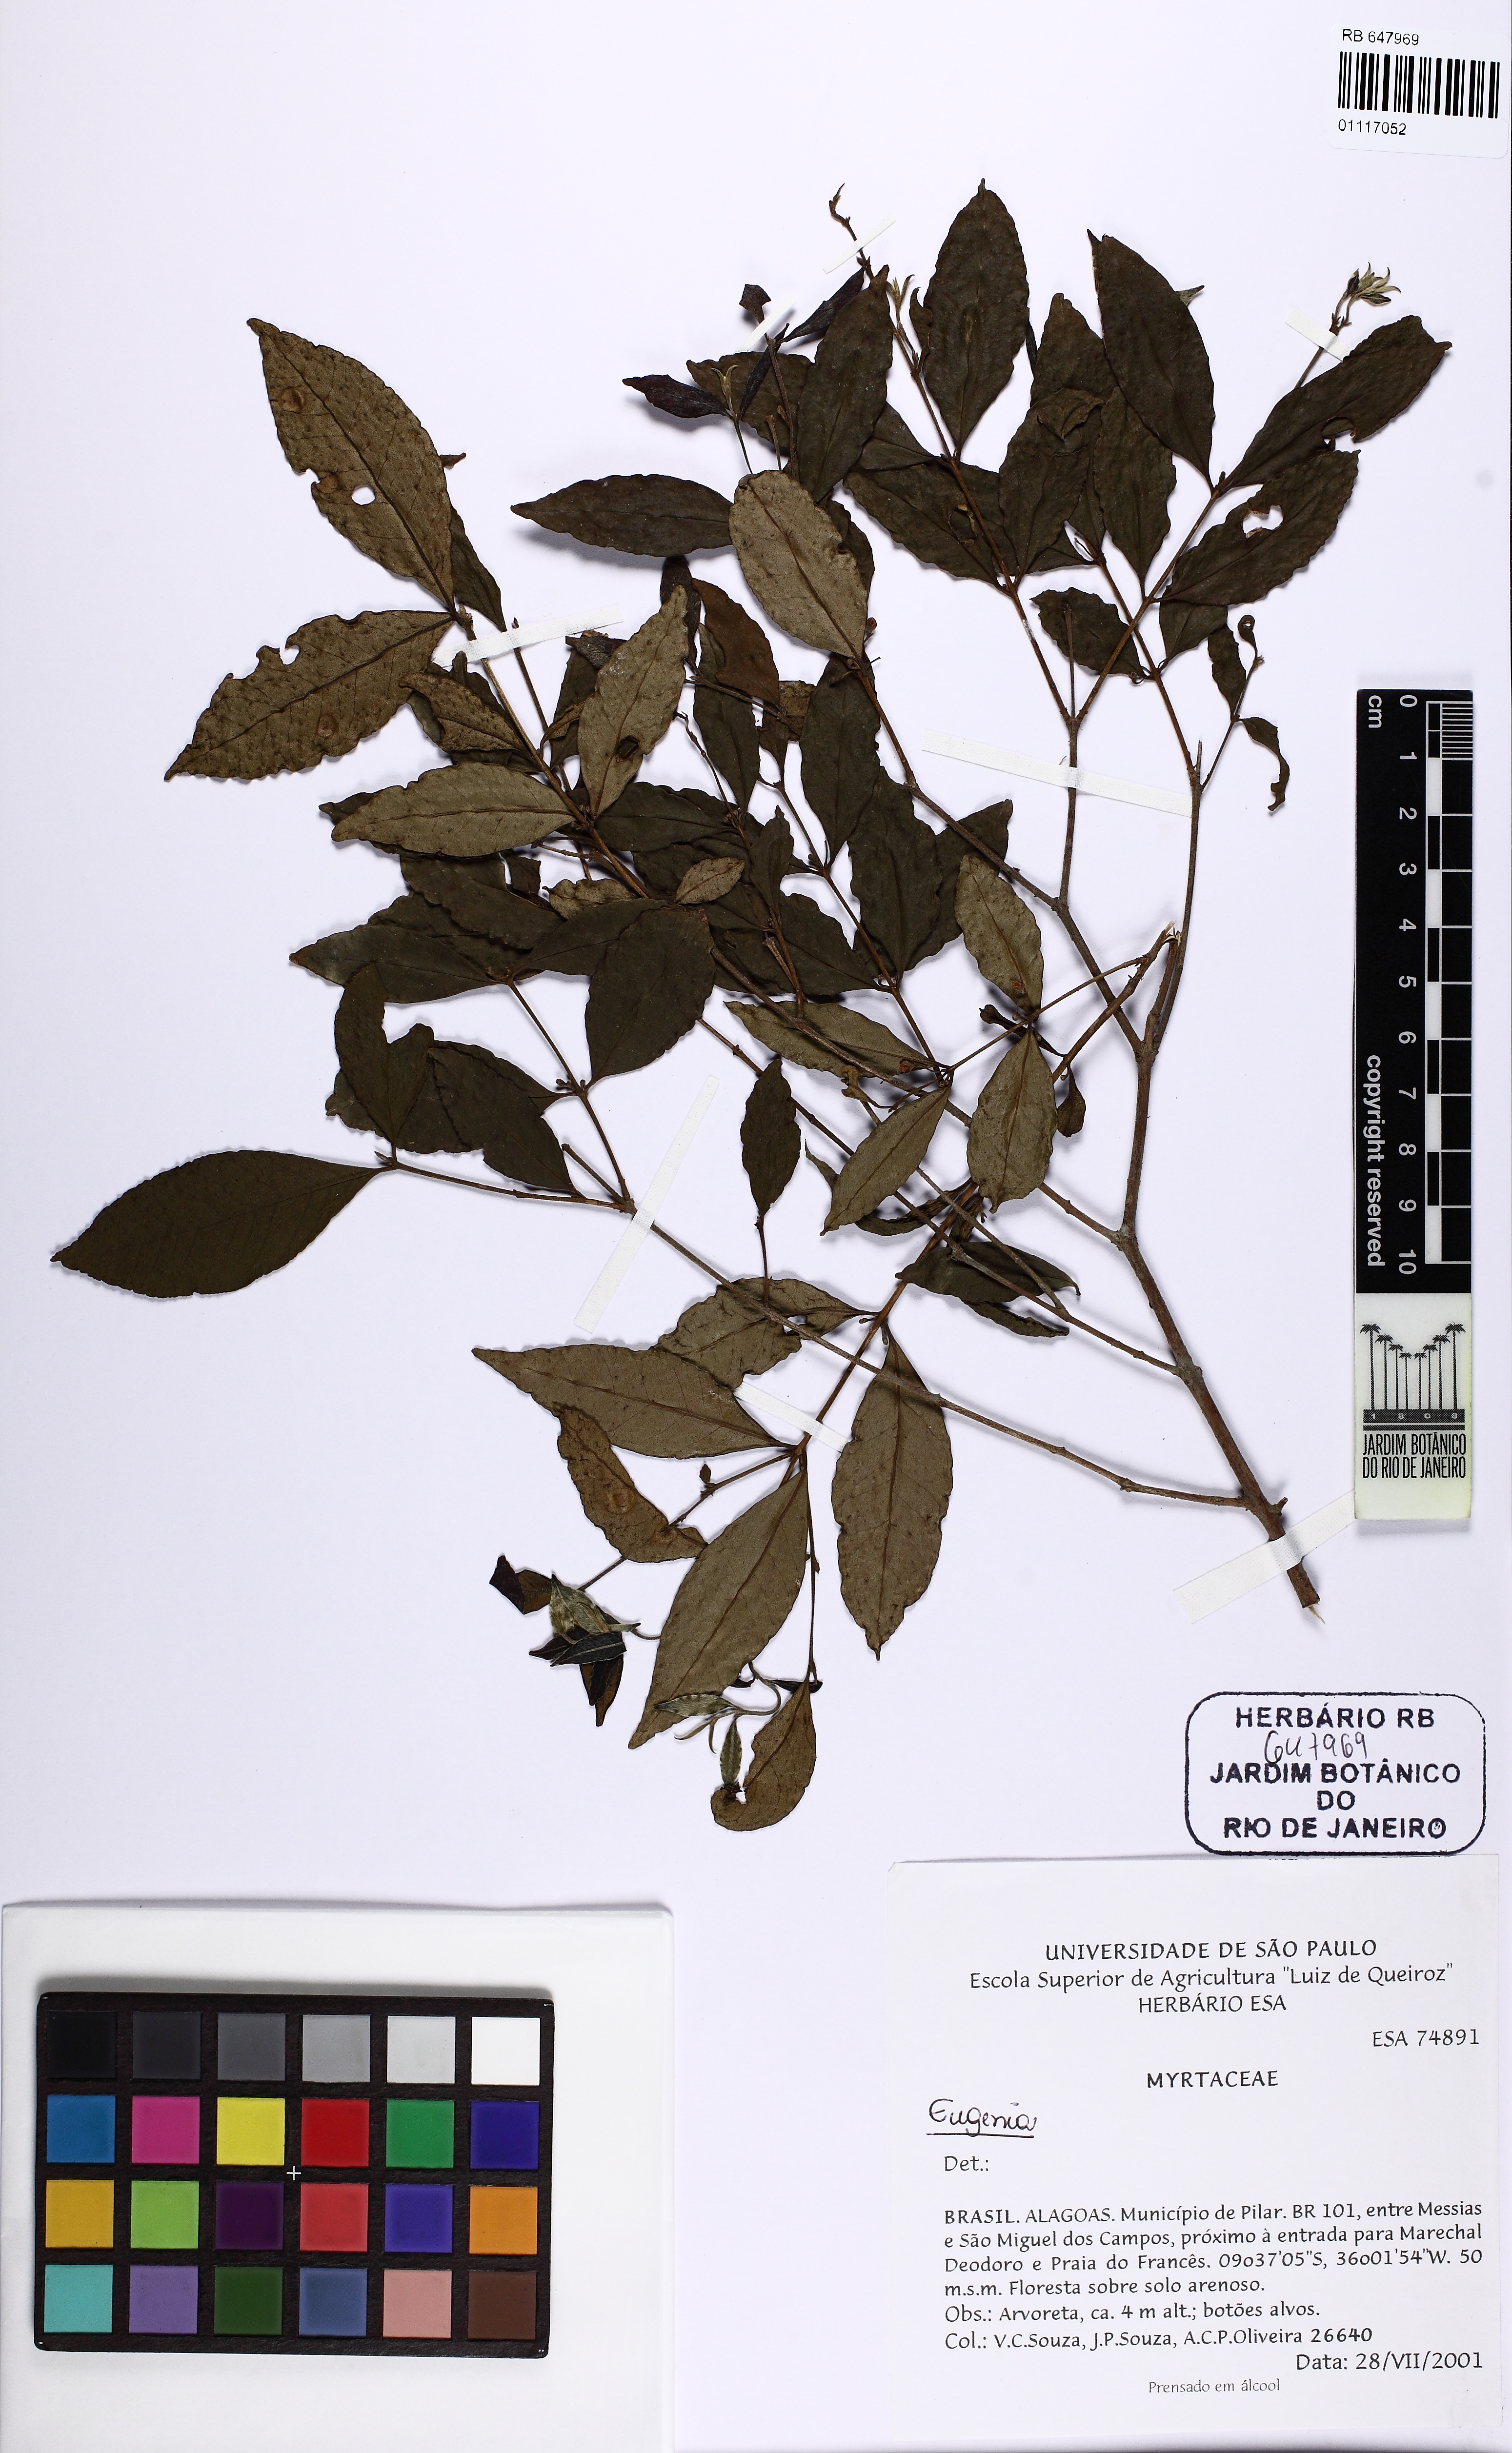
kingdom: Plantae
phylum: Tracheophyta
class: Magnoliopsida
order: Myrtales
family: Myrtaceae
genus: Eugenia
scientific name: Eugenia
